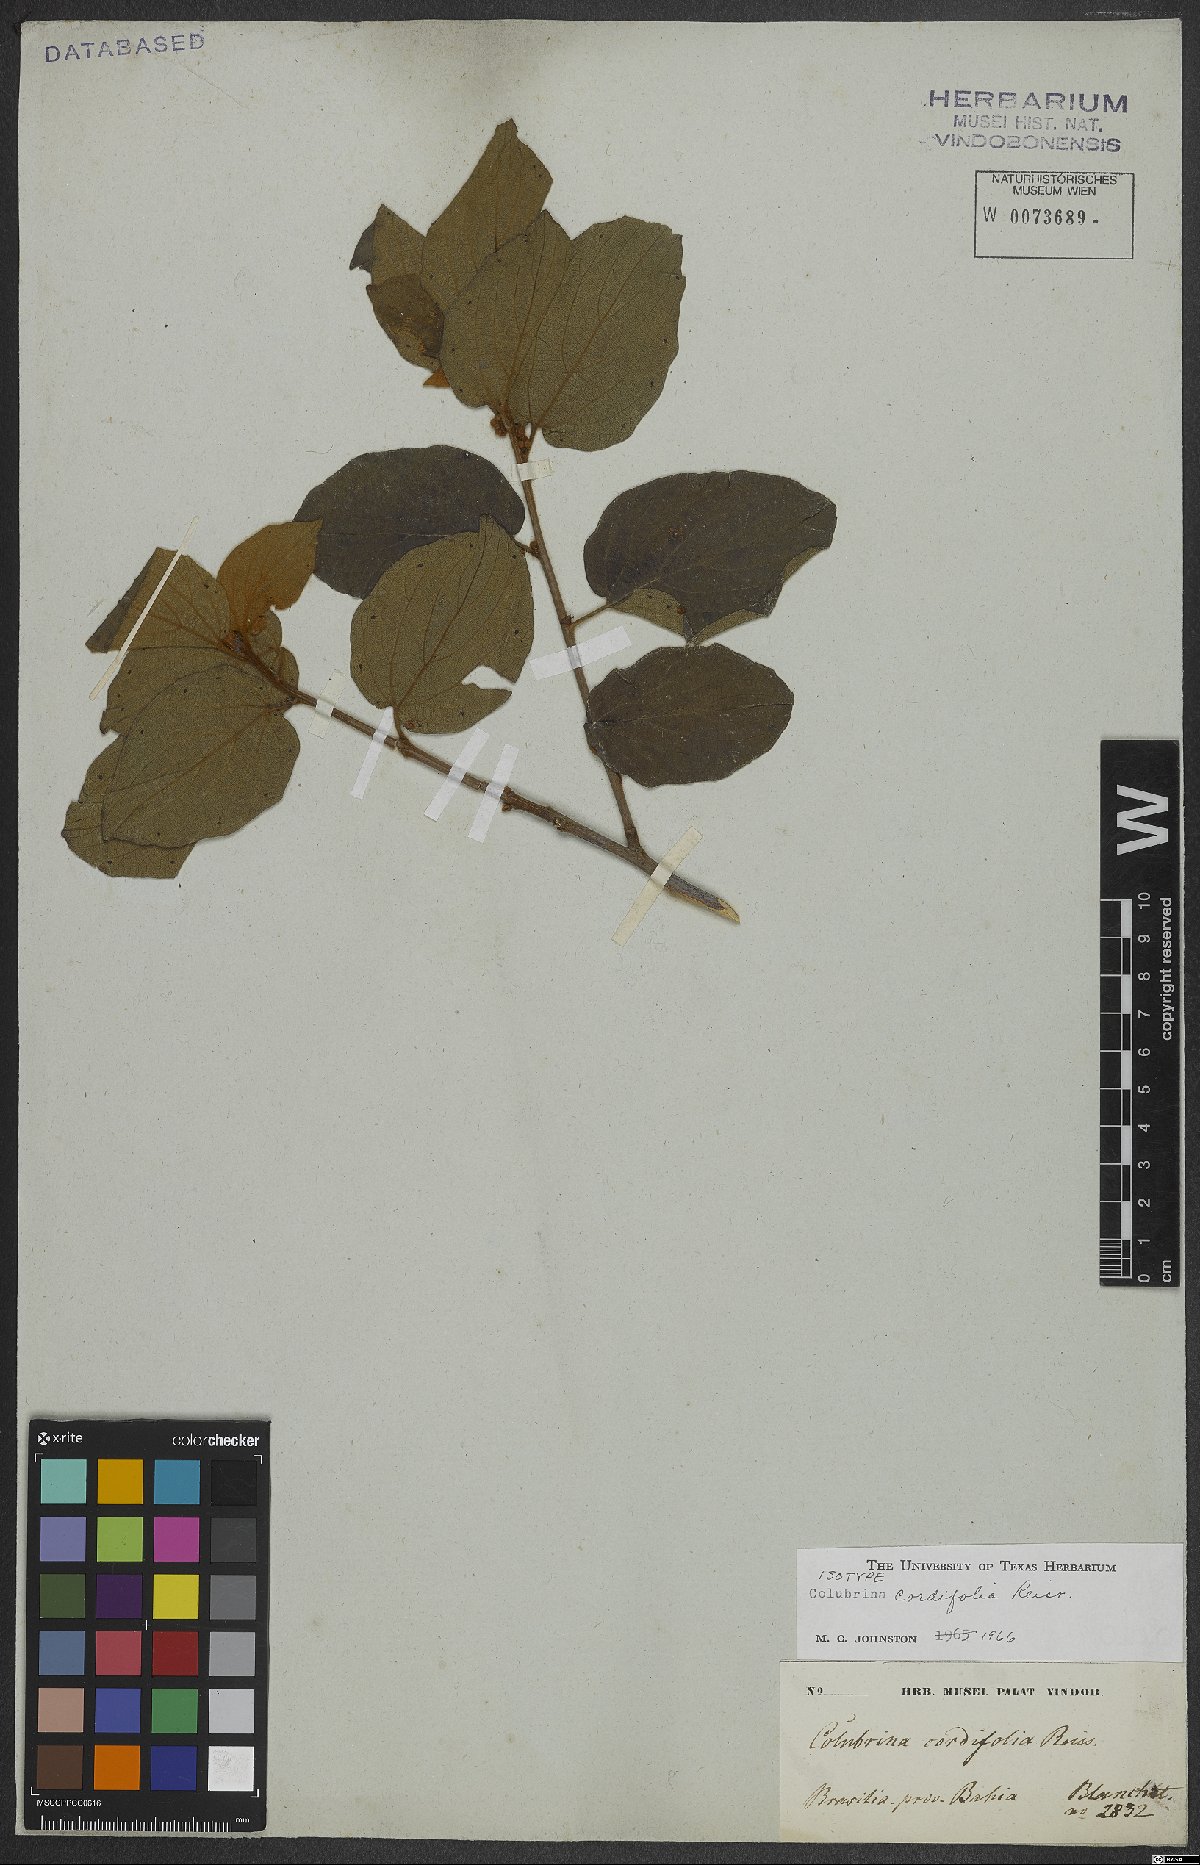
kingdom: Plantae
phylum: Tracheophyta
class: Magnoliopsida
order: Rosales
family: Rhamnaceae
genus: Colubrina
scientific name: Colubrina cordifolia
